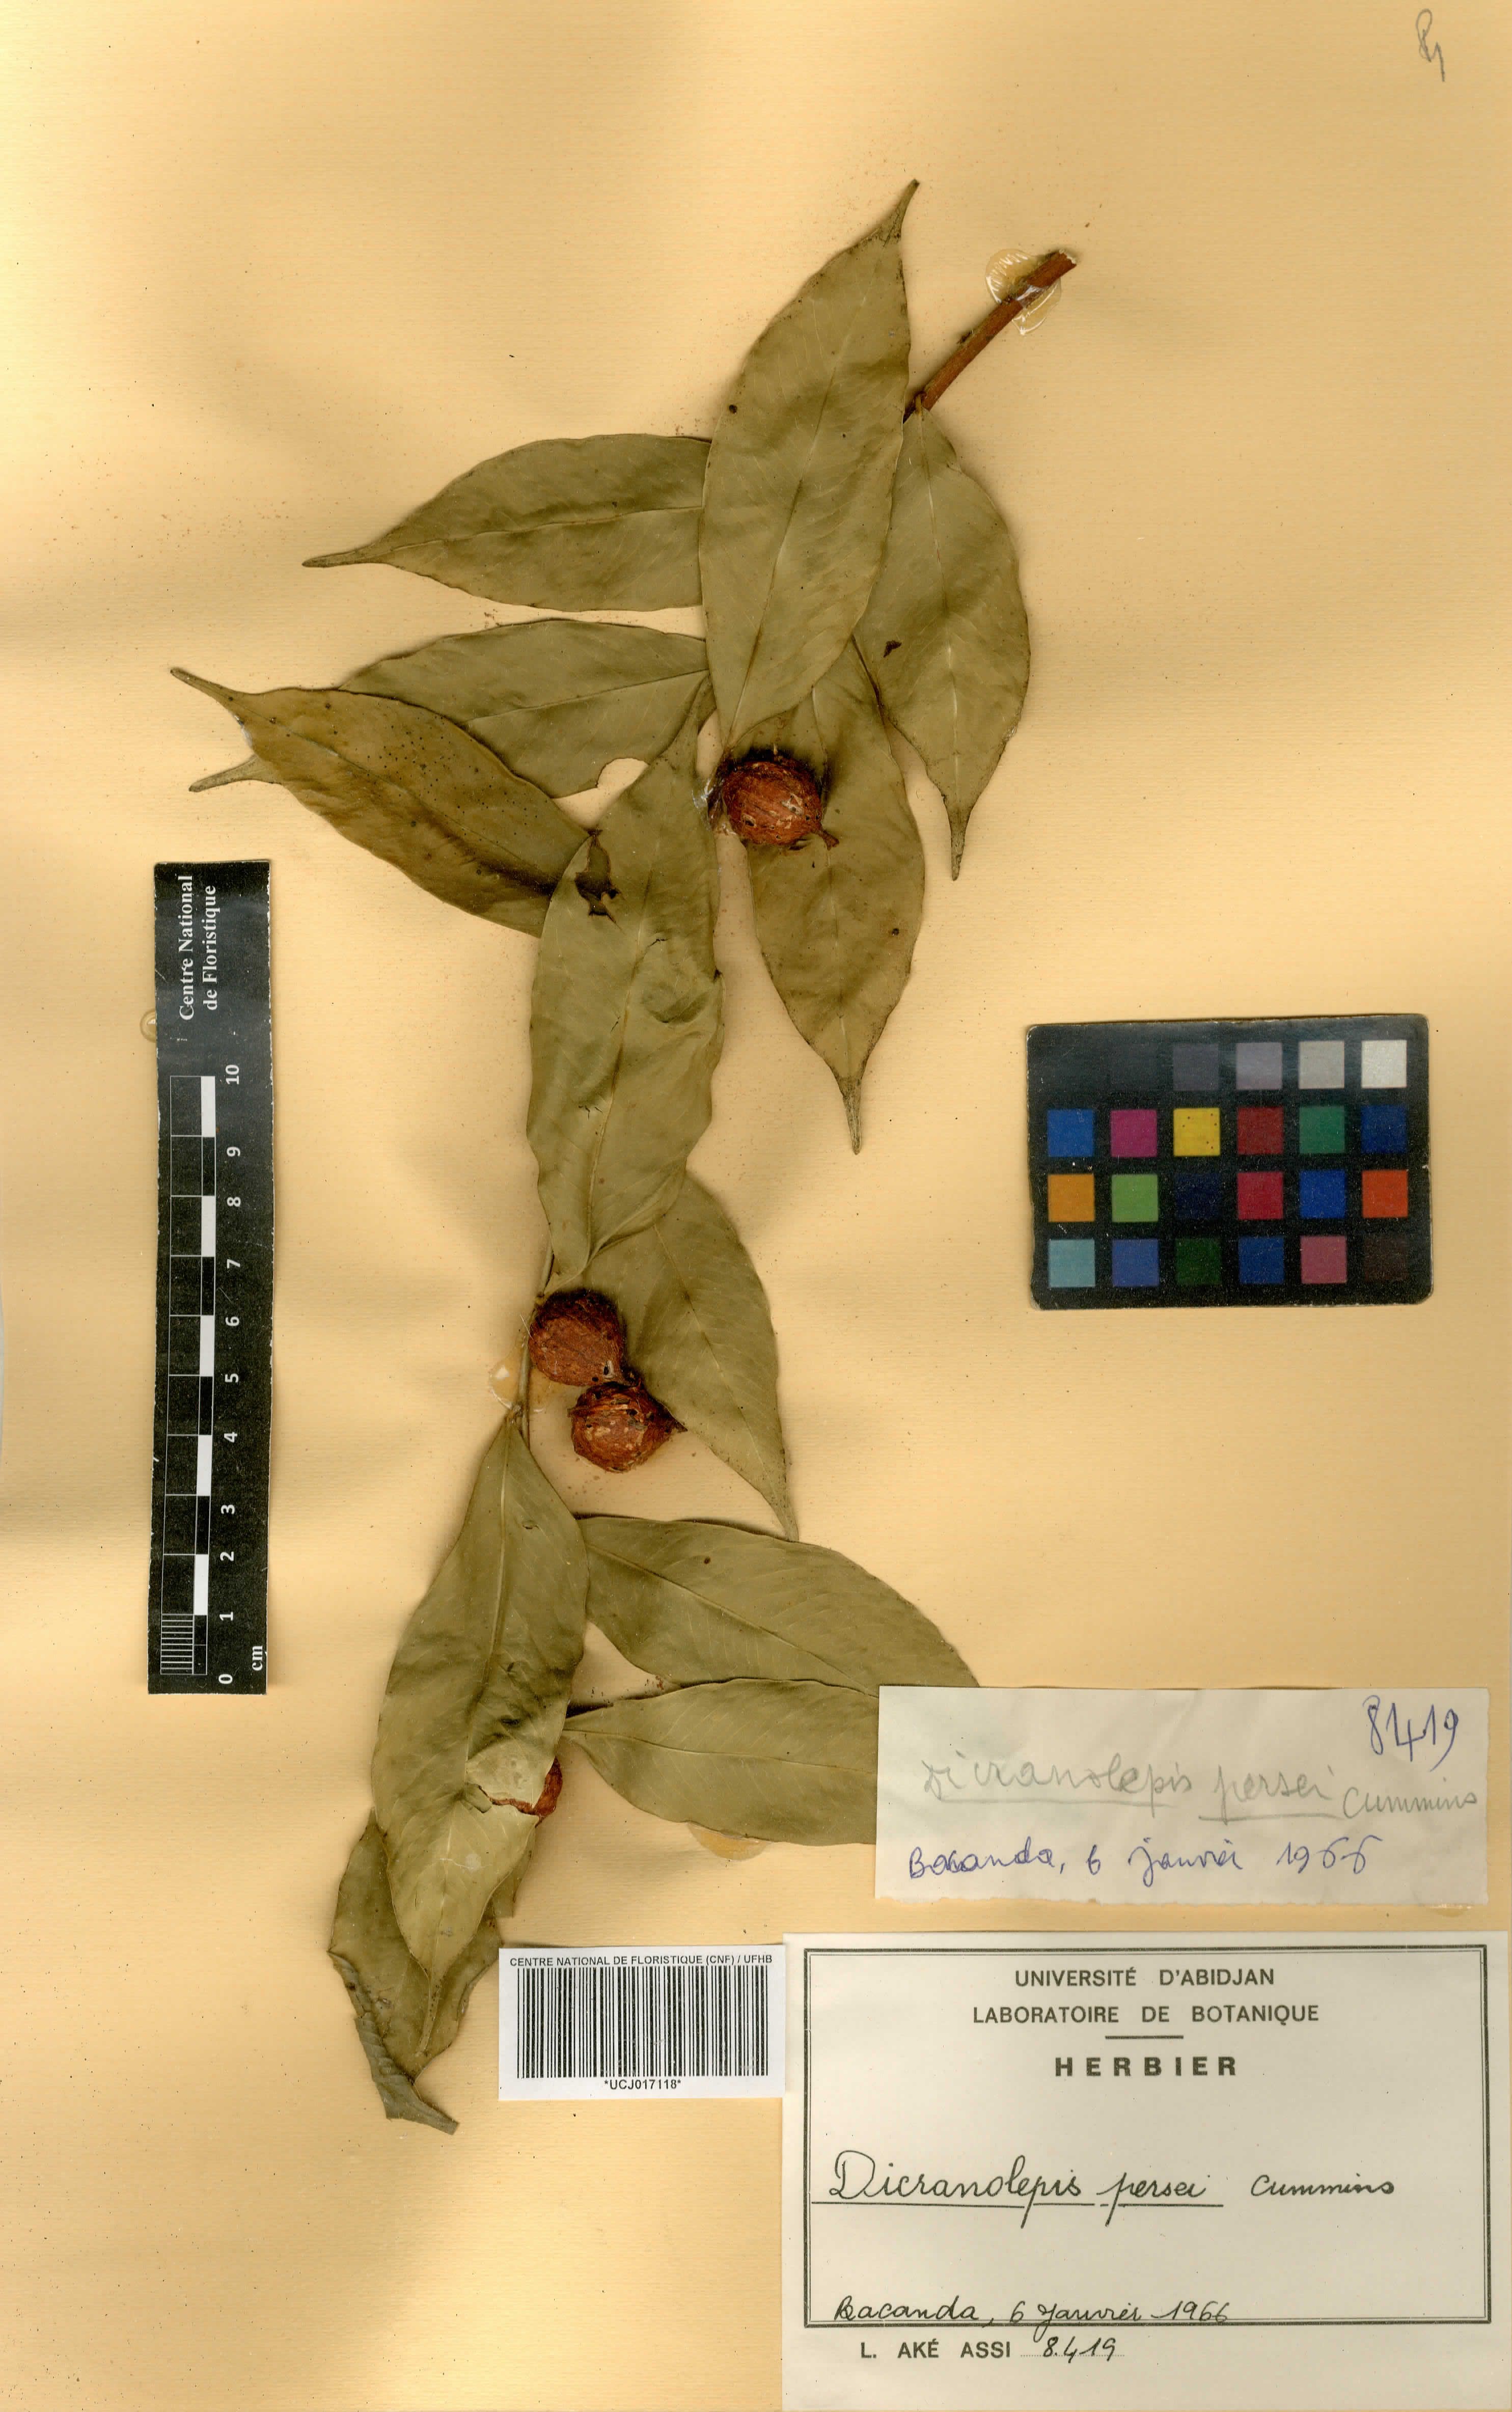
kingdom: Plantae
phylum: Tracheophyta
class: Magnoliopsida
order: Malvales
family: Thymelaeaceae
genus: Dicranolepis
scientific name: Dicranolepis persei
